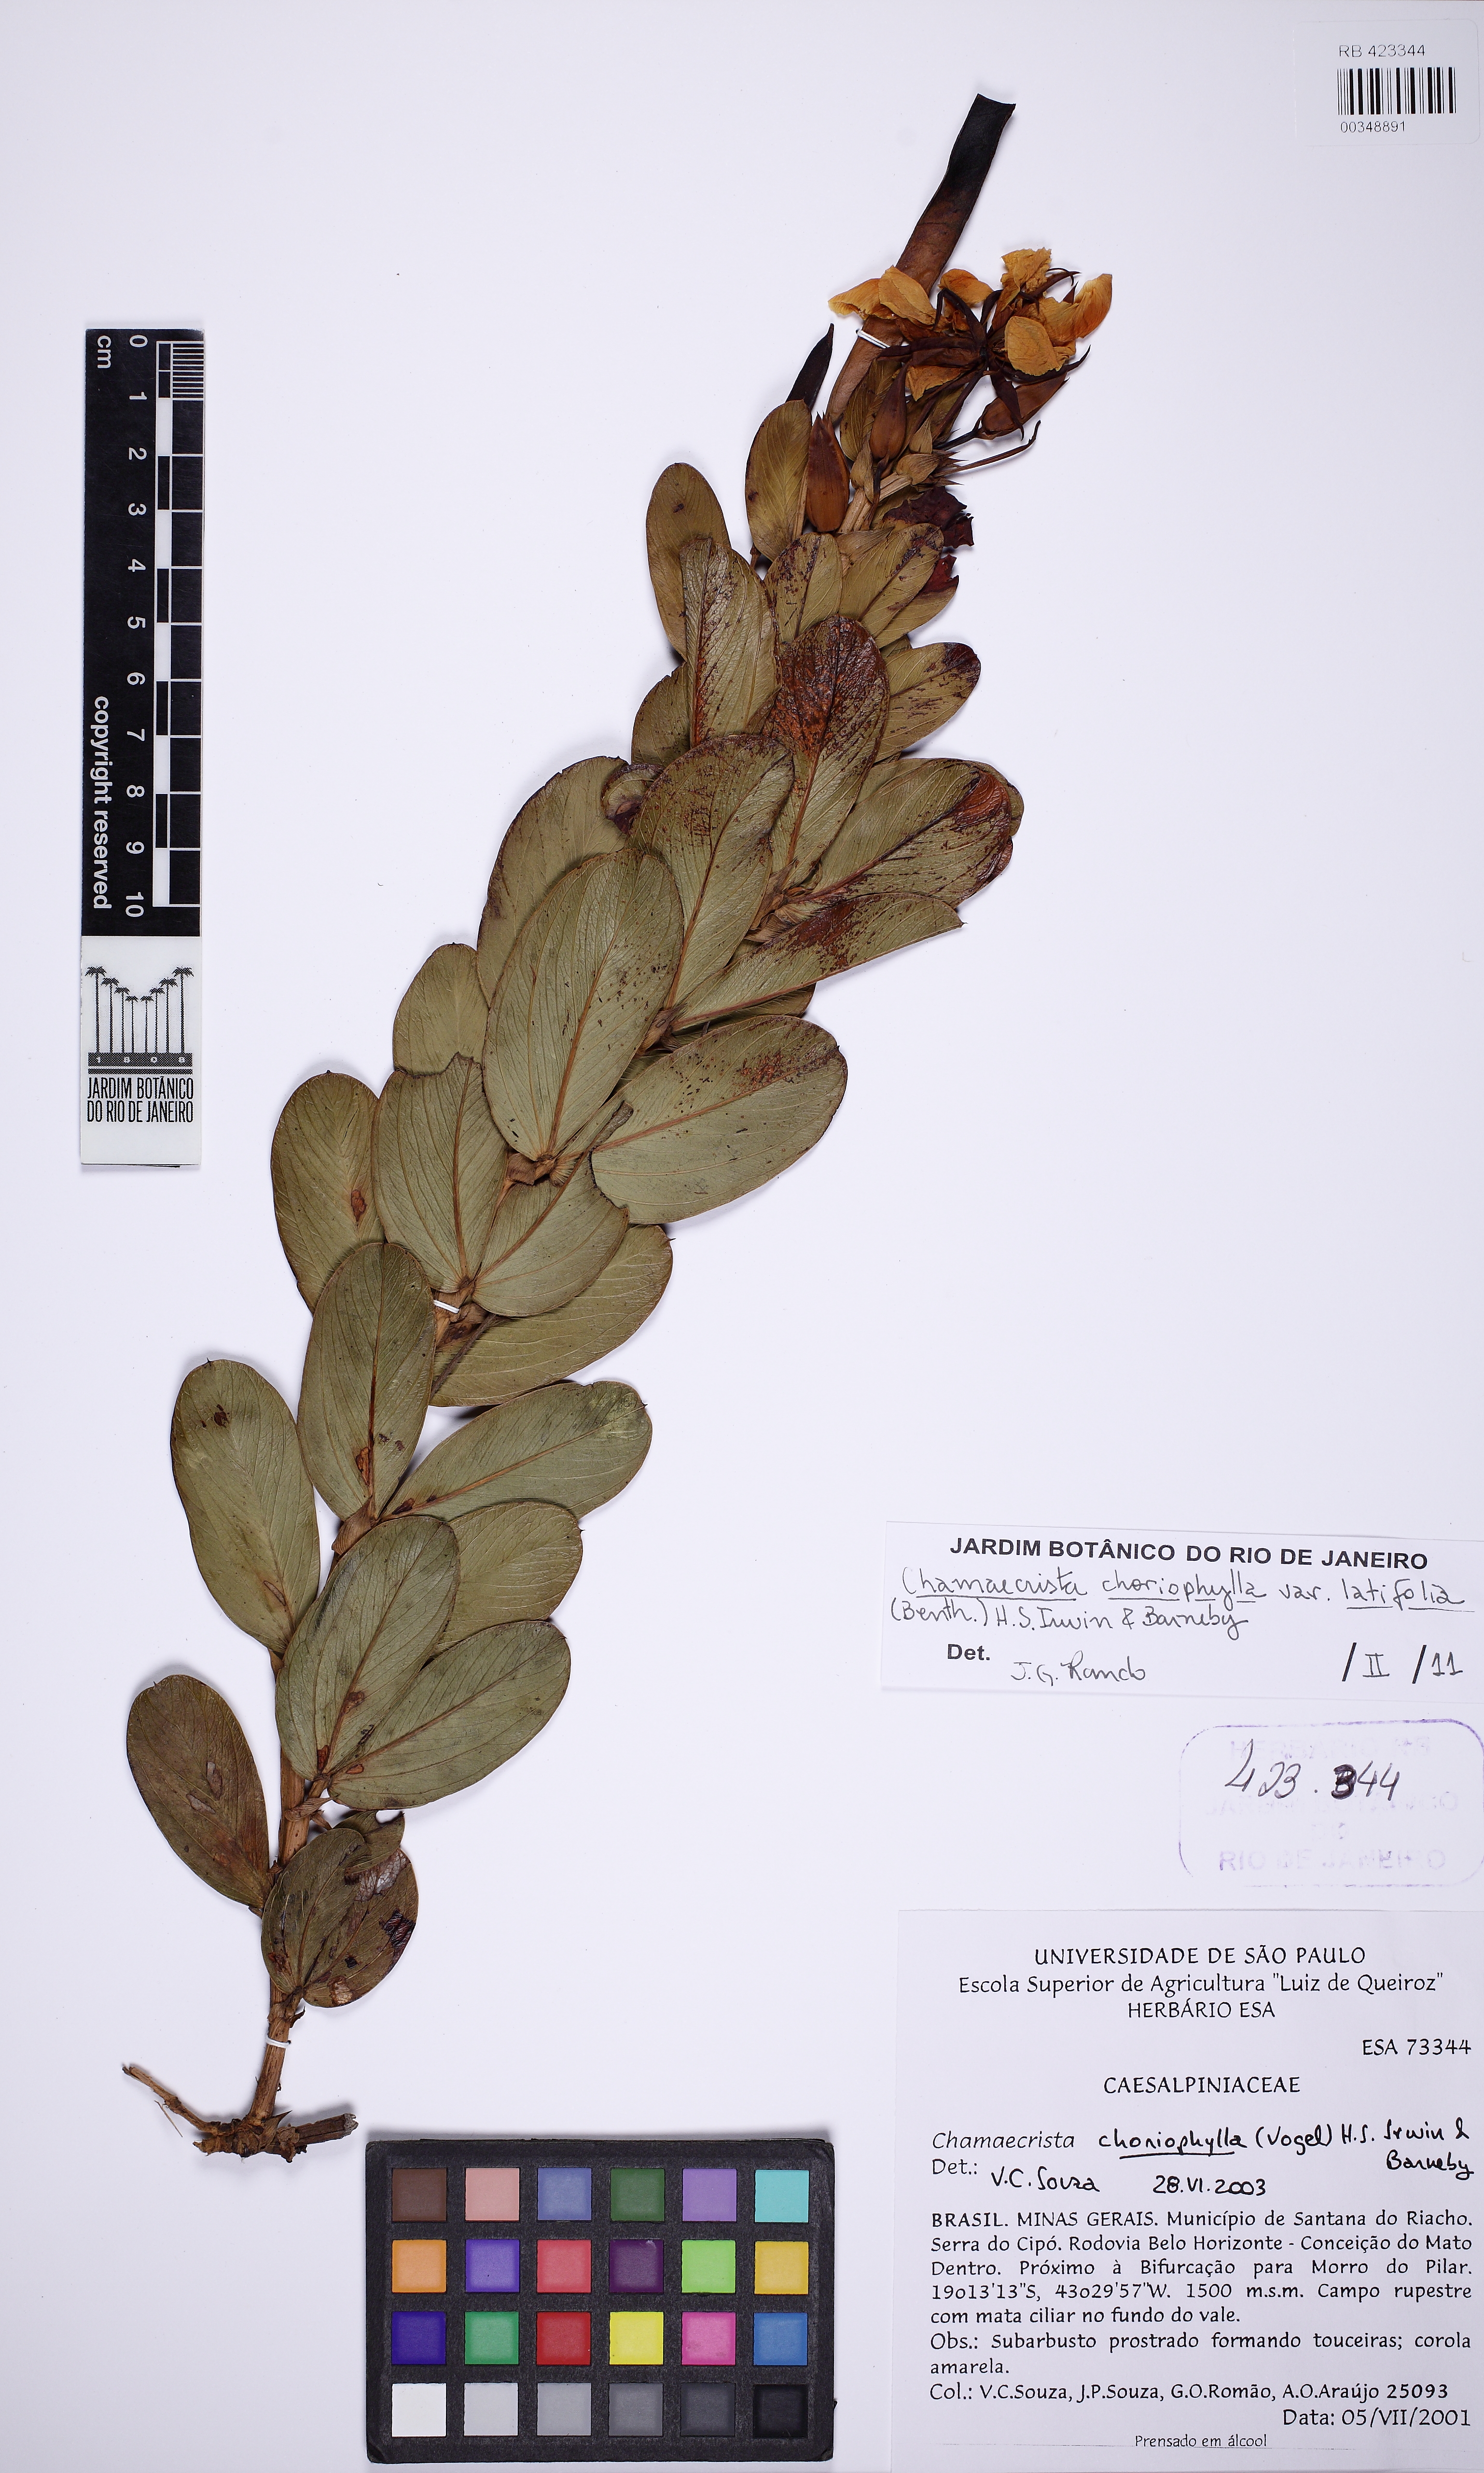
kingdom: Plantae
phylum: Tracheophyta
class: Magnoliopsida
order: Fabales
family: Fabaceae
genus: Chamaecrista
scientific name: Chamaecrista latifolia
